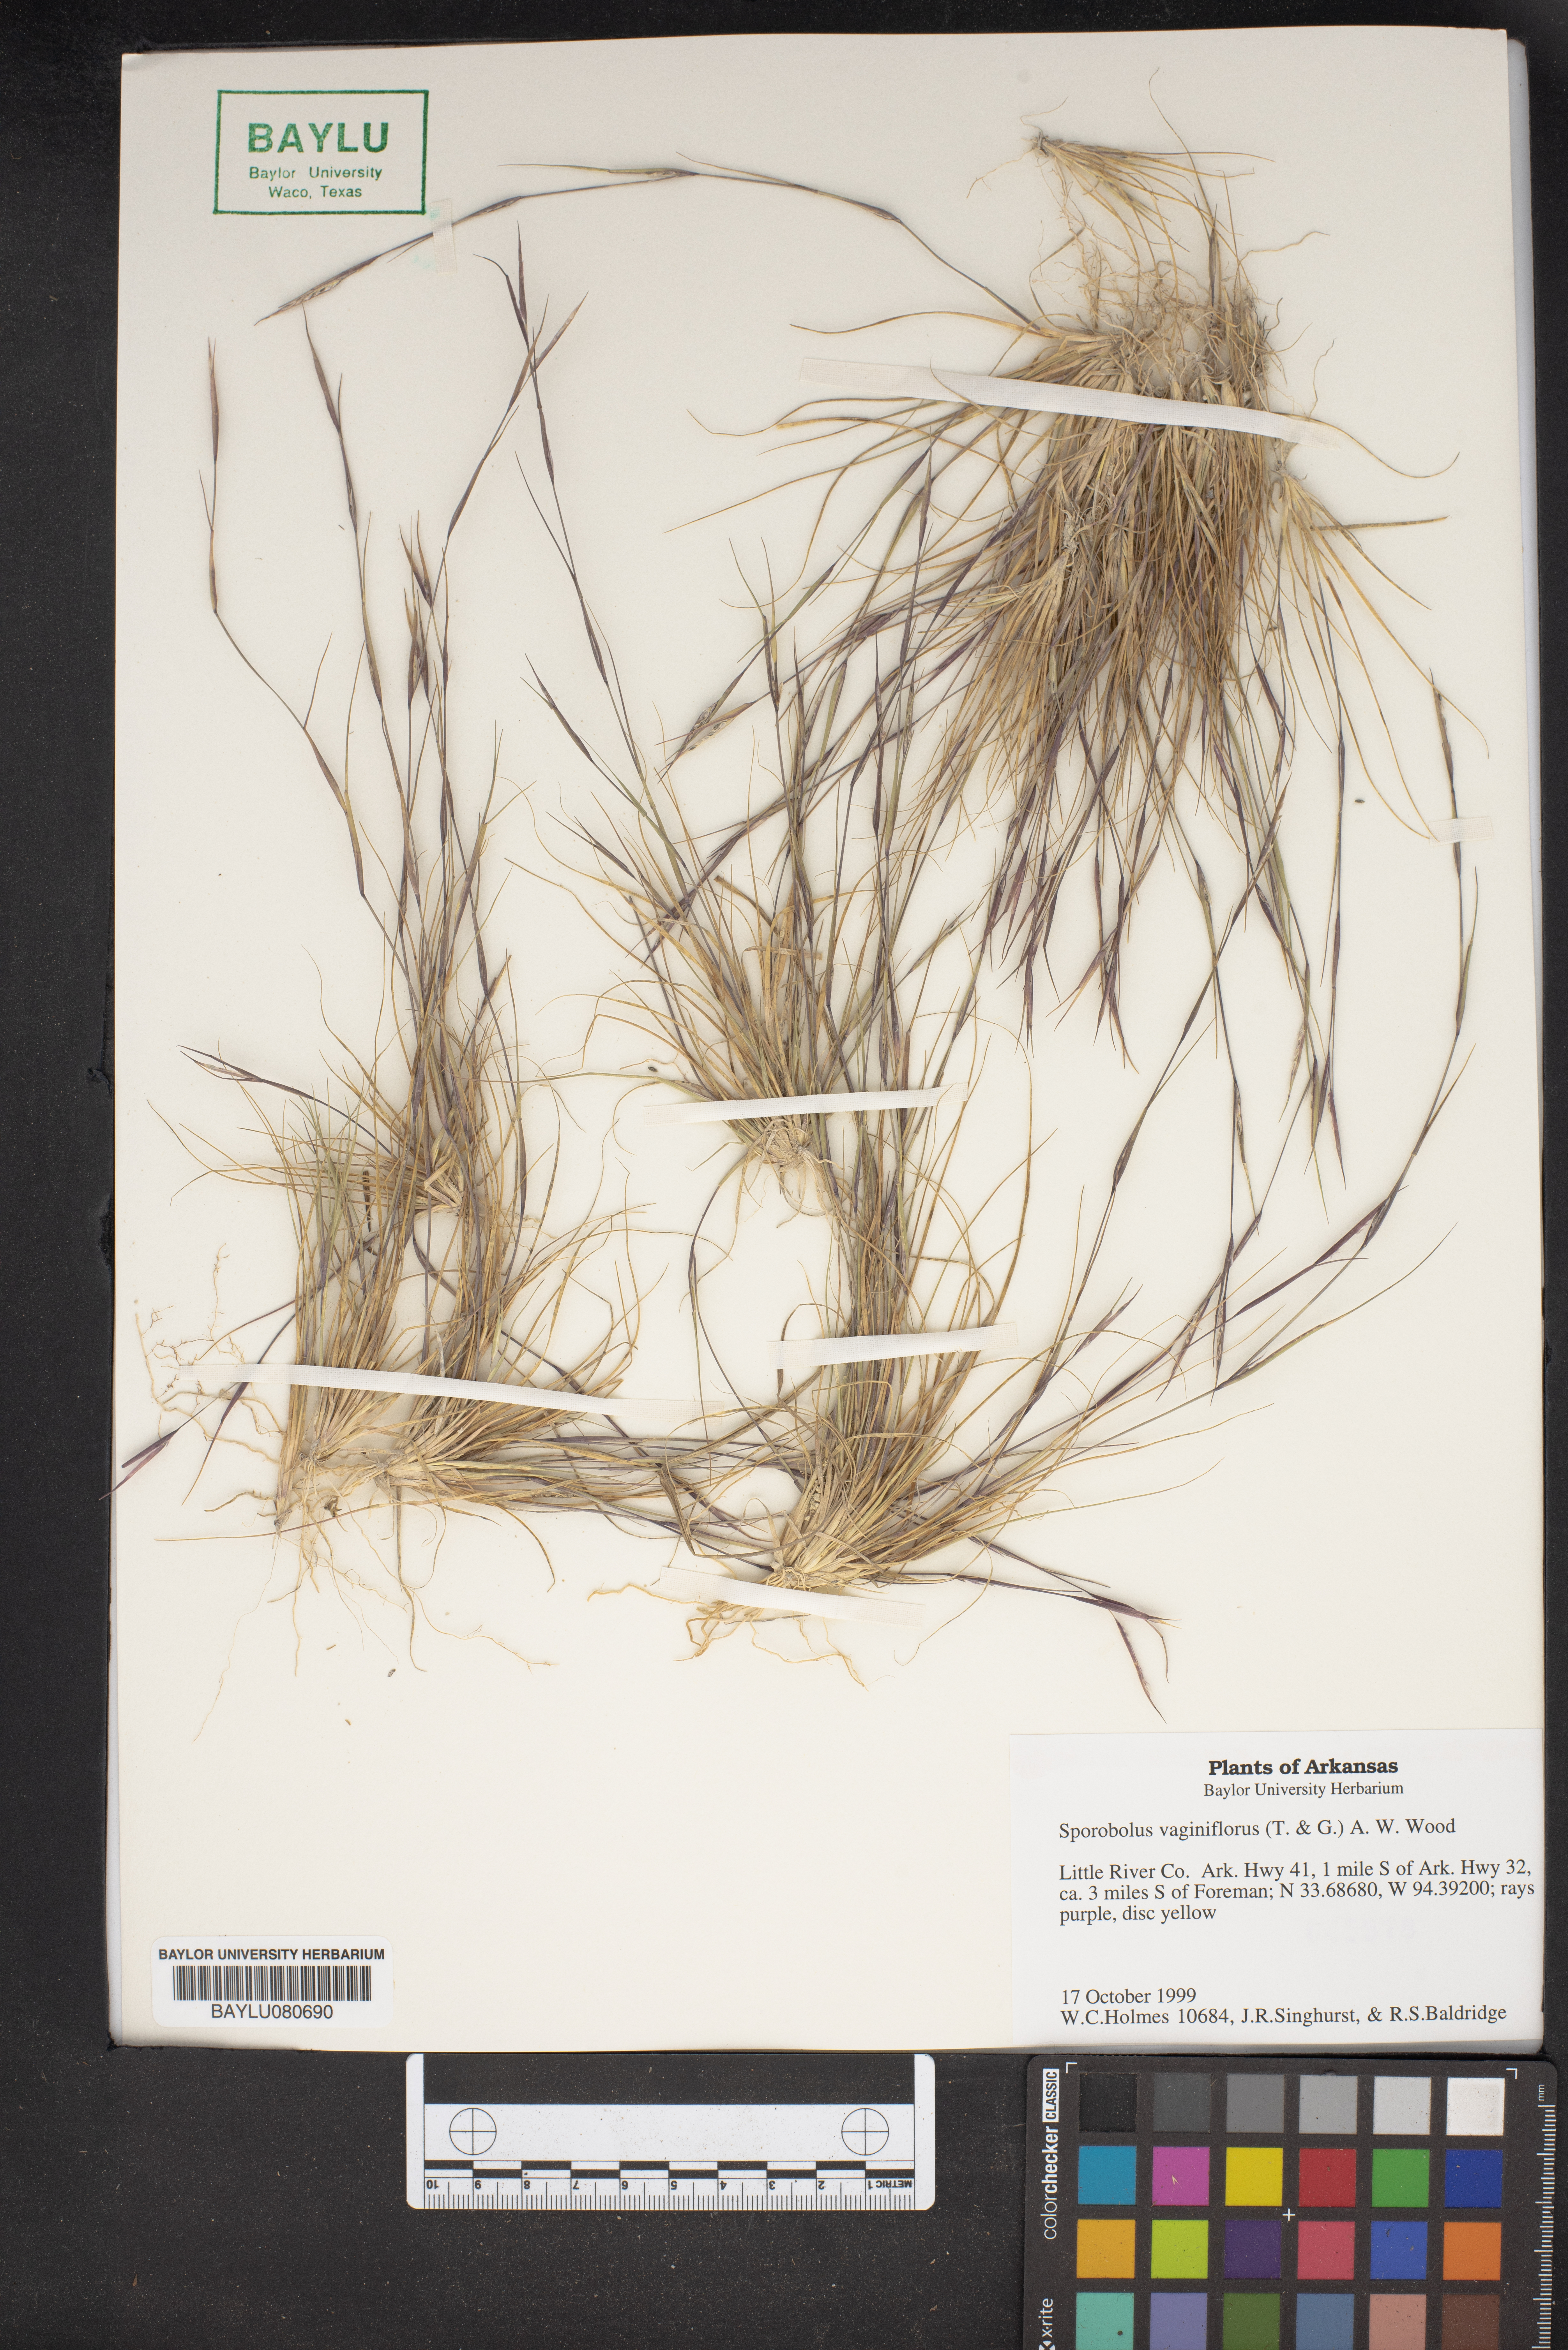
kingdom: Plantae
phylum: Tracheophyta
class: Liliopsida
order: Poales
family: Poaceae
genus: Sporobolus
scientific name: Sporobolus vaginiflorus
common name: Poverty dropseed
